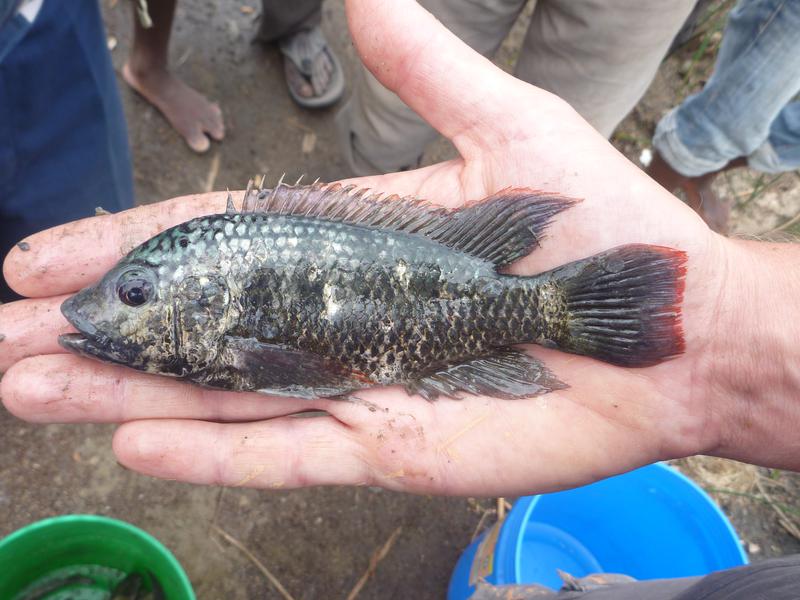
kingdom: Animalia
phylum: Chordata
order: Perciformes
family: Cichlidae
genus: Oreochromis
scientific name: Oreochromis shiranus
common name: Chilwa tilapia
